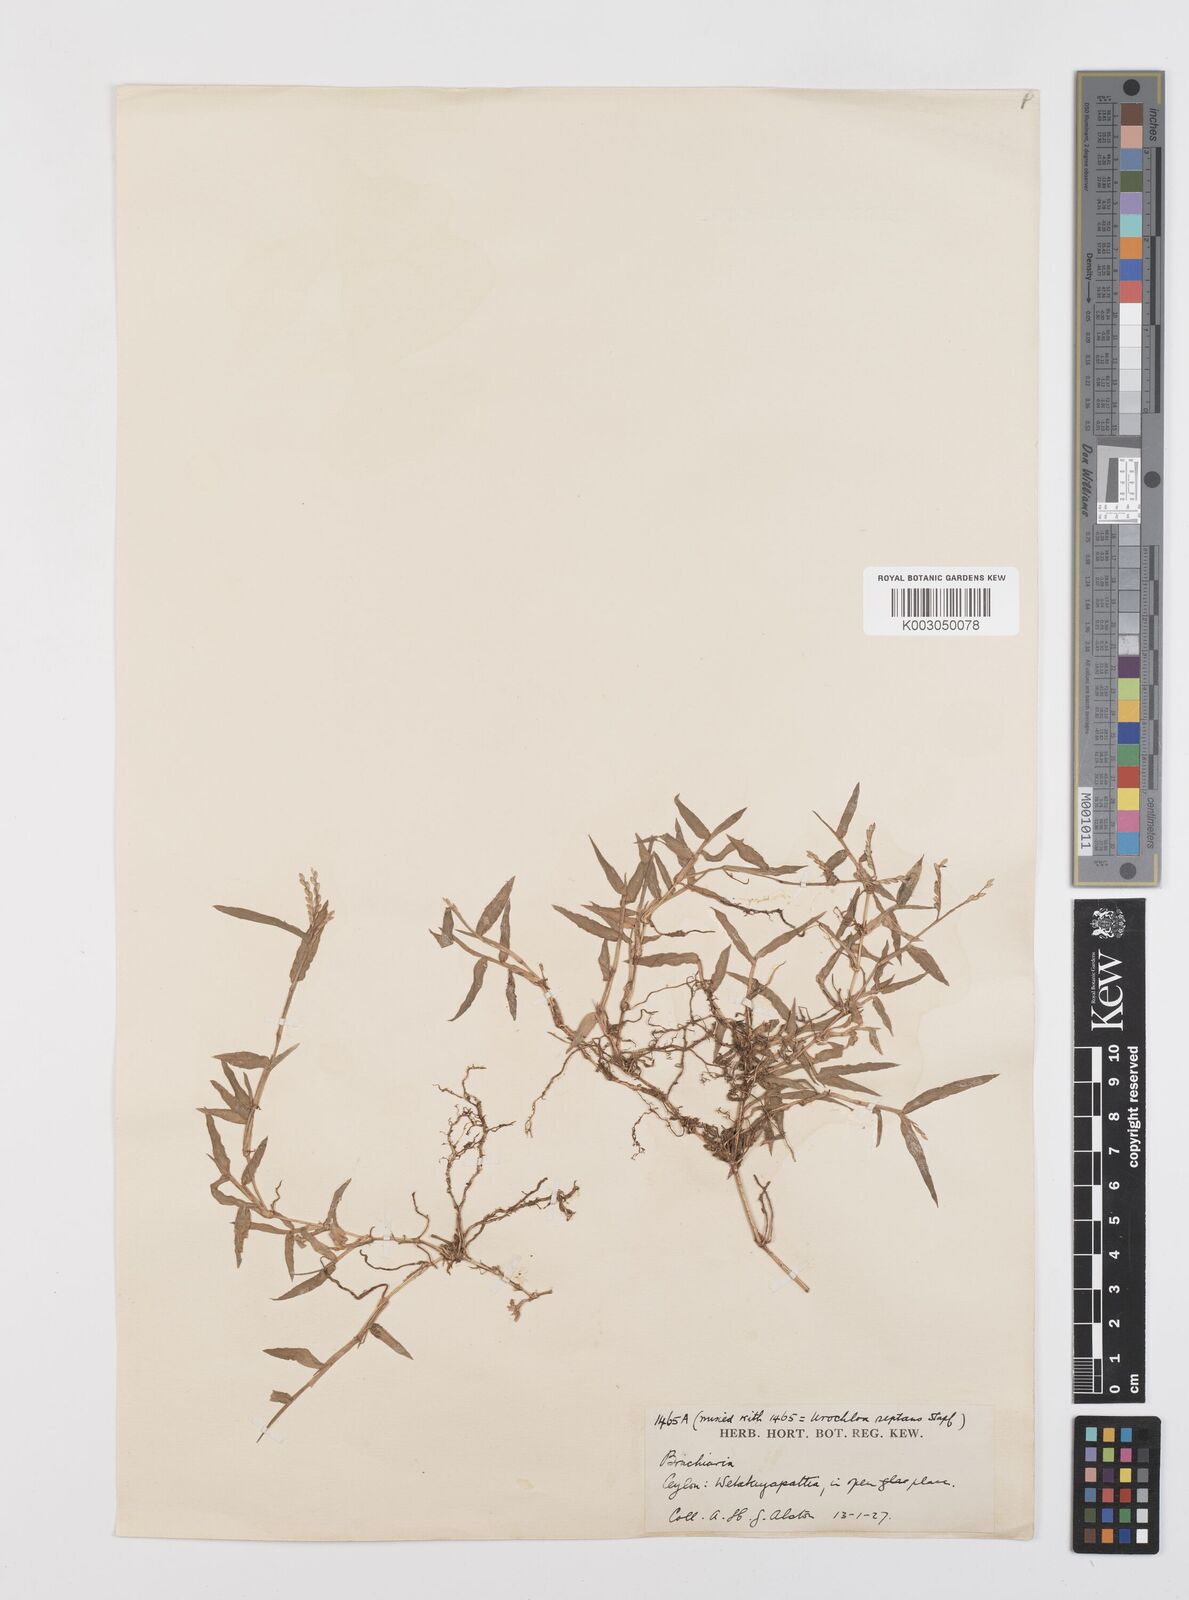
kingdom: Plantae
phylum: Tracheophyta
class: Liliopsida
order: Poales
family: Poaceae
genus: Urochloa
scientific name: Urochloa distachyos
